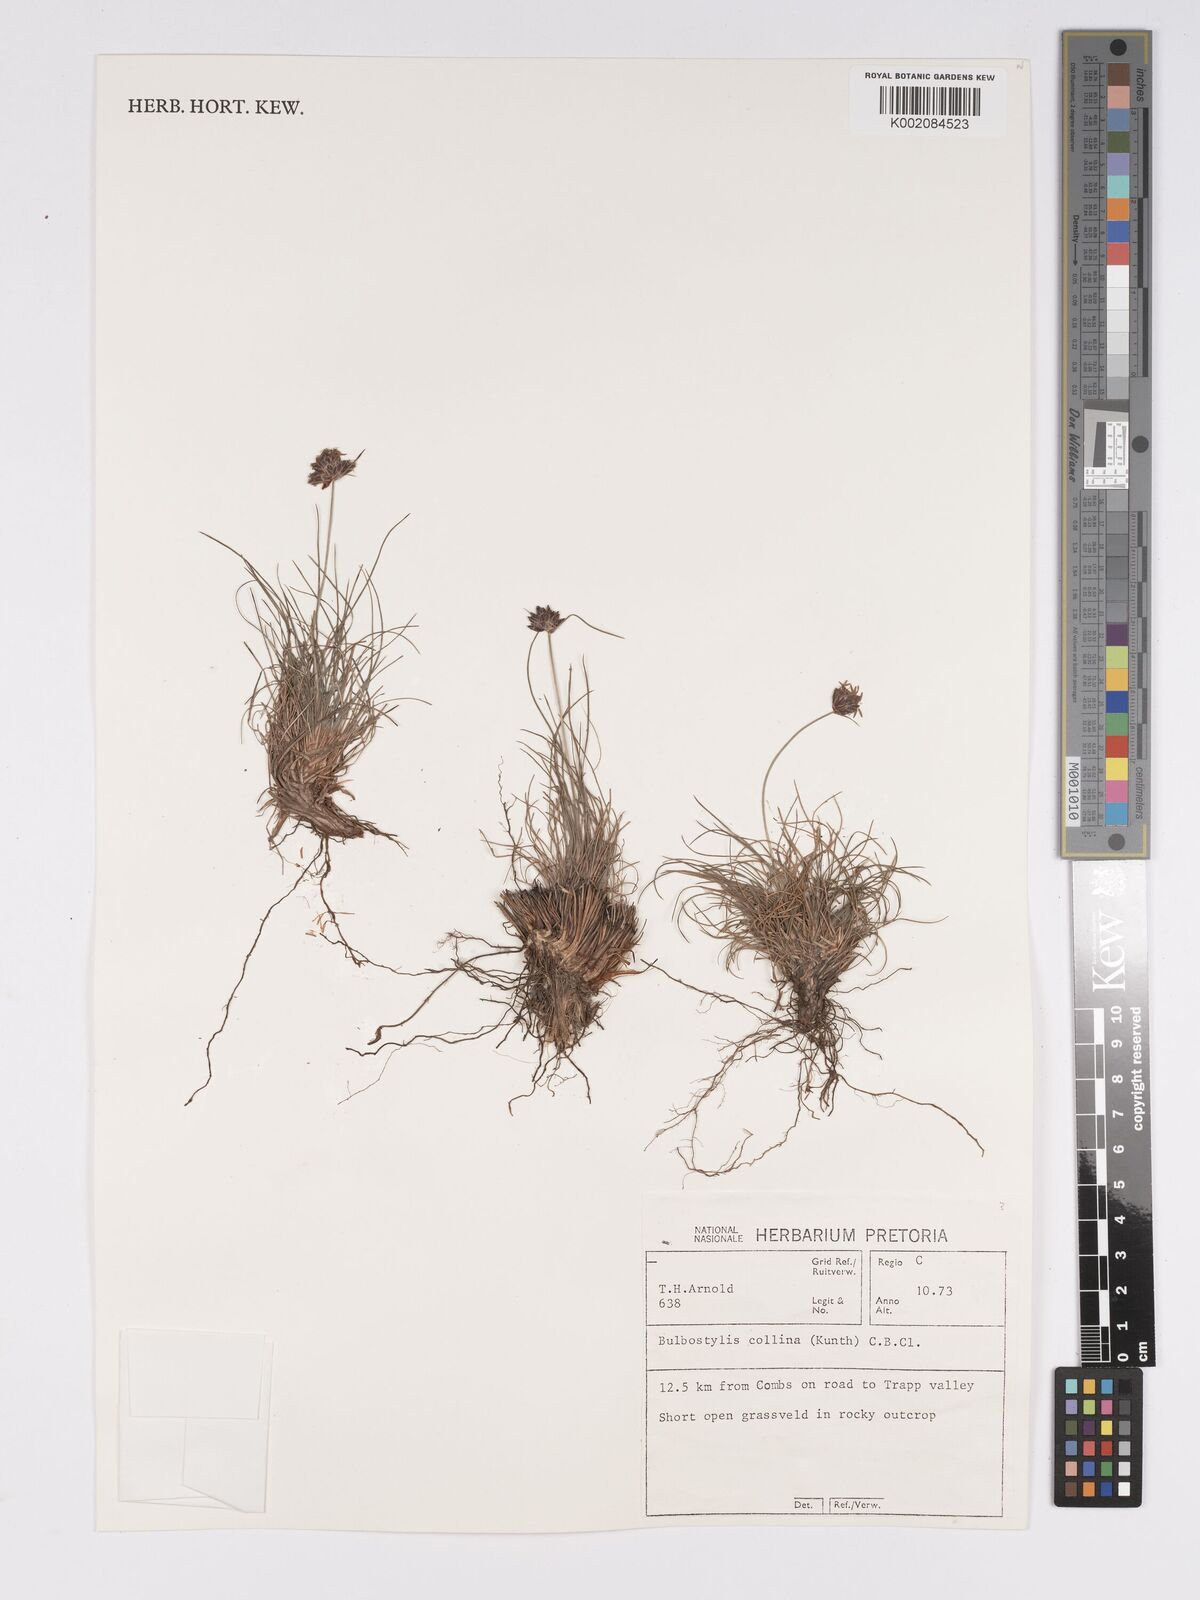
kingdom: Plantae
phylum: Tracheophyta
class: Liliopsida
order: Poales
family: Cyperaceae
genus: Bulbostylis
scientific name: Bulbostylis contexta
